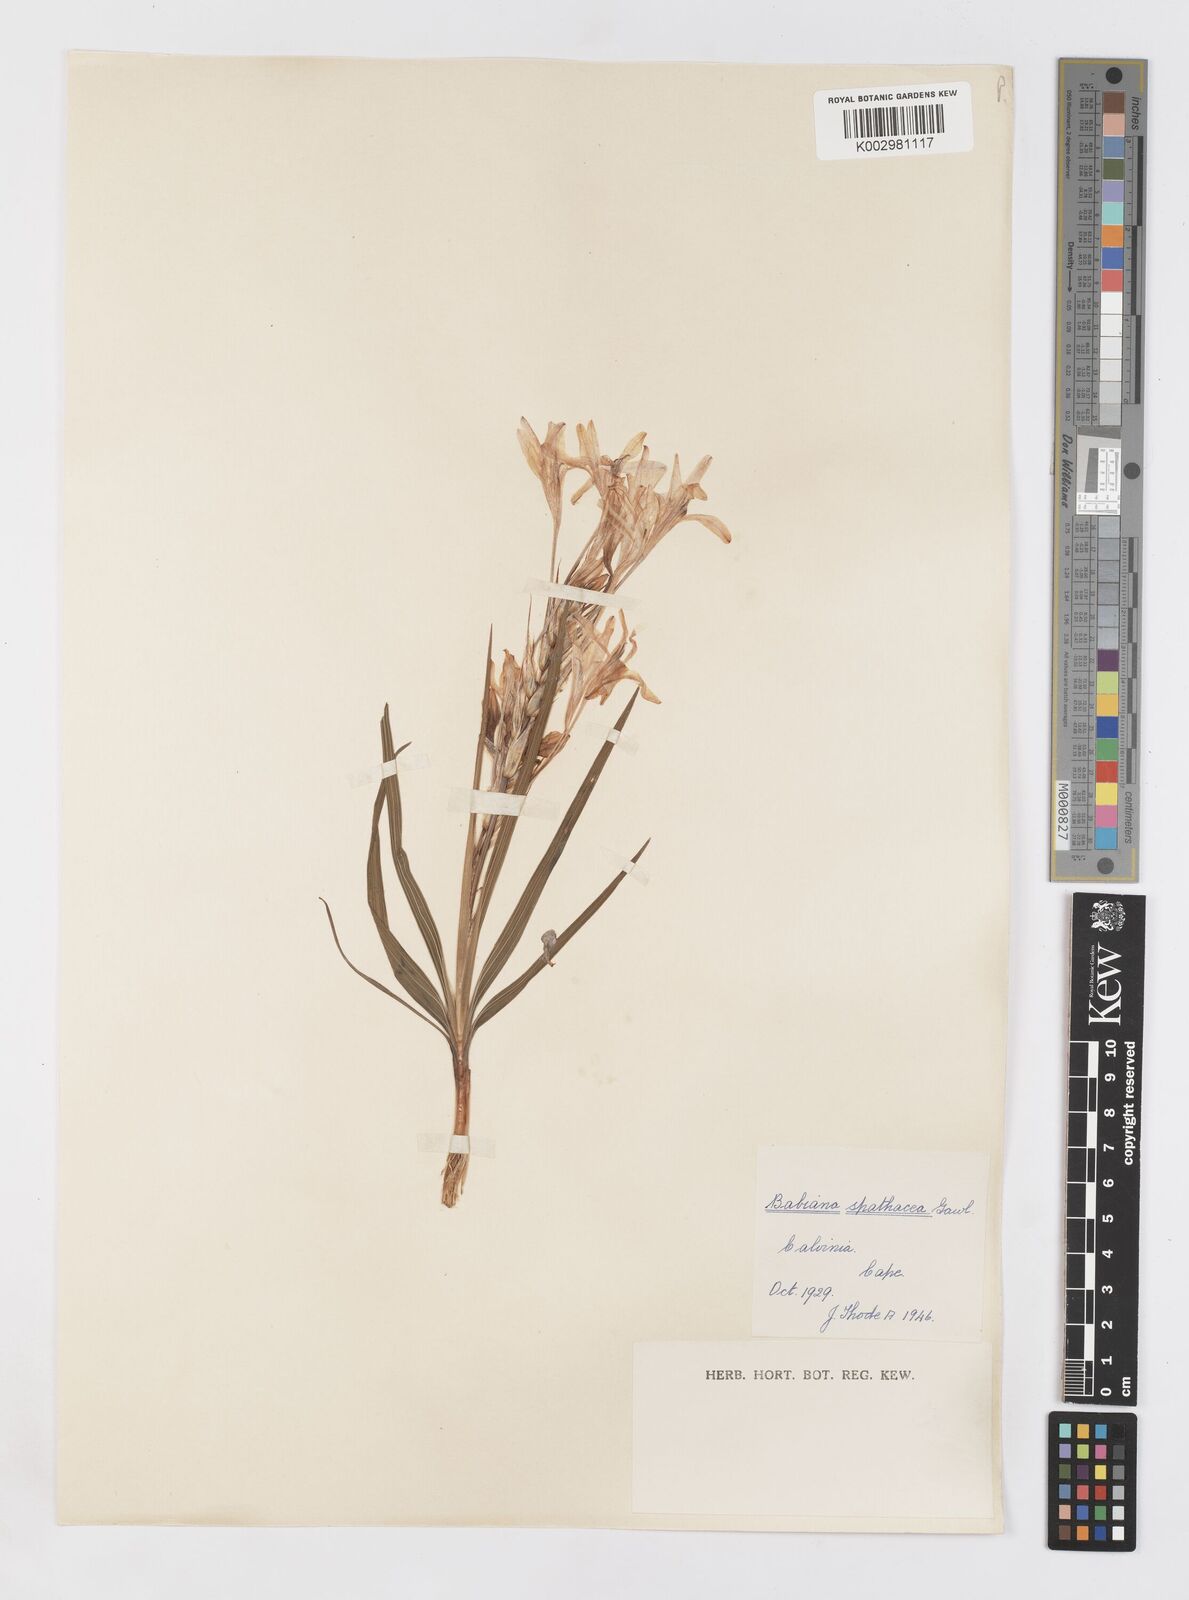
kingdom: Plantae
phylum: Tracheophyta
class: Liliopsida
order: Asparagales
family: Iridaceae
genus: Babiana
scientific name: Babiana spathacea
